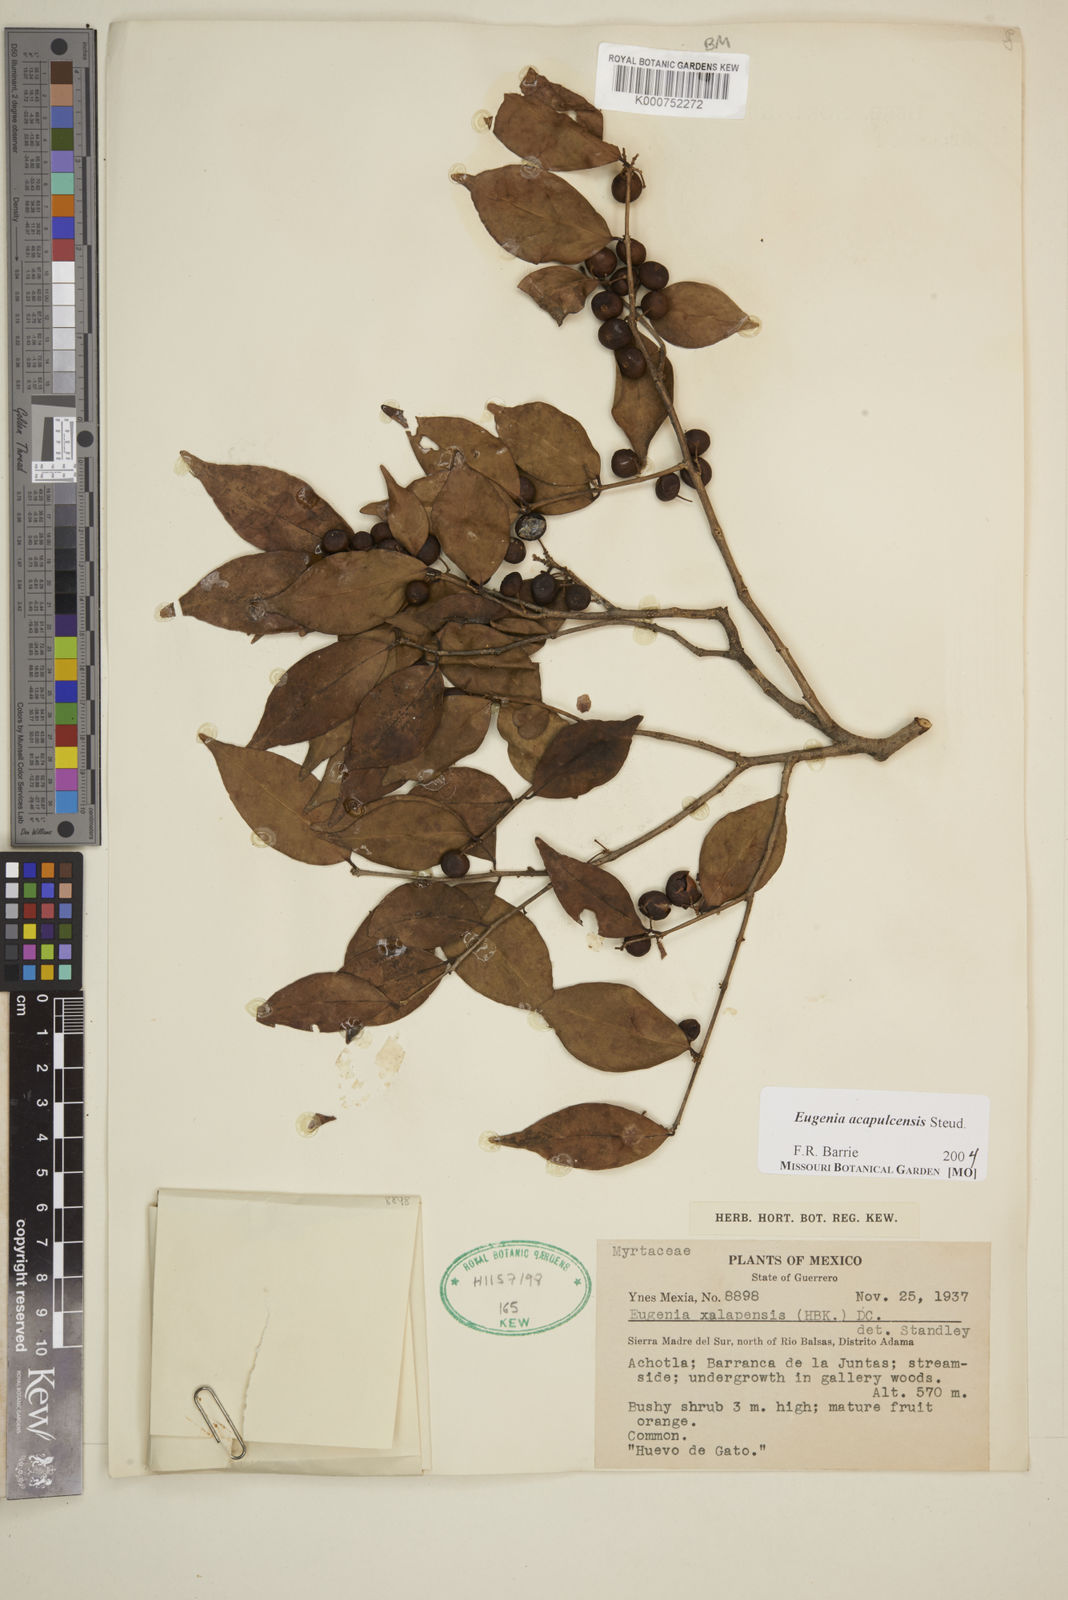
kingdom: Plantae
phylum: Tracheophyta
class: Magnoliopsida
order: Myrtales
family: Myrtaceae
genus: Eugenia
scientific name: Eugenia acapulcensis
